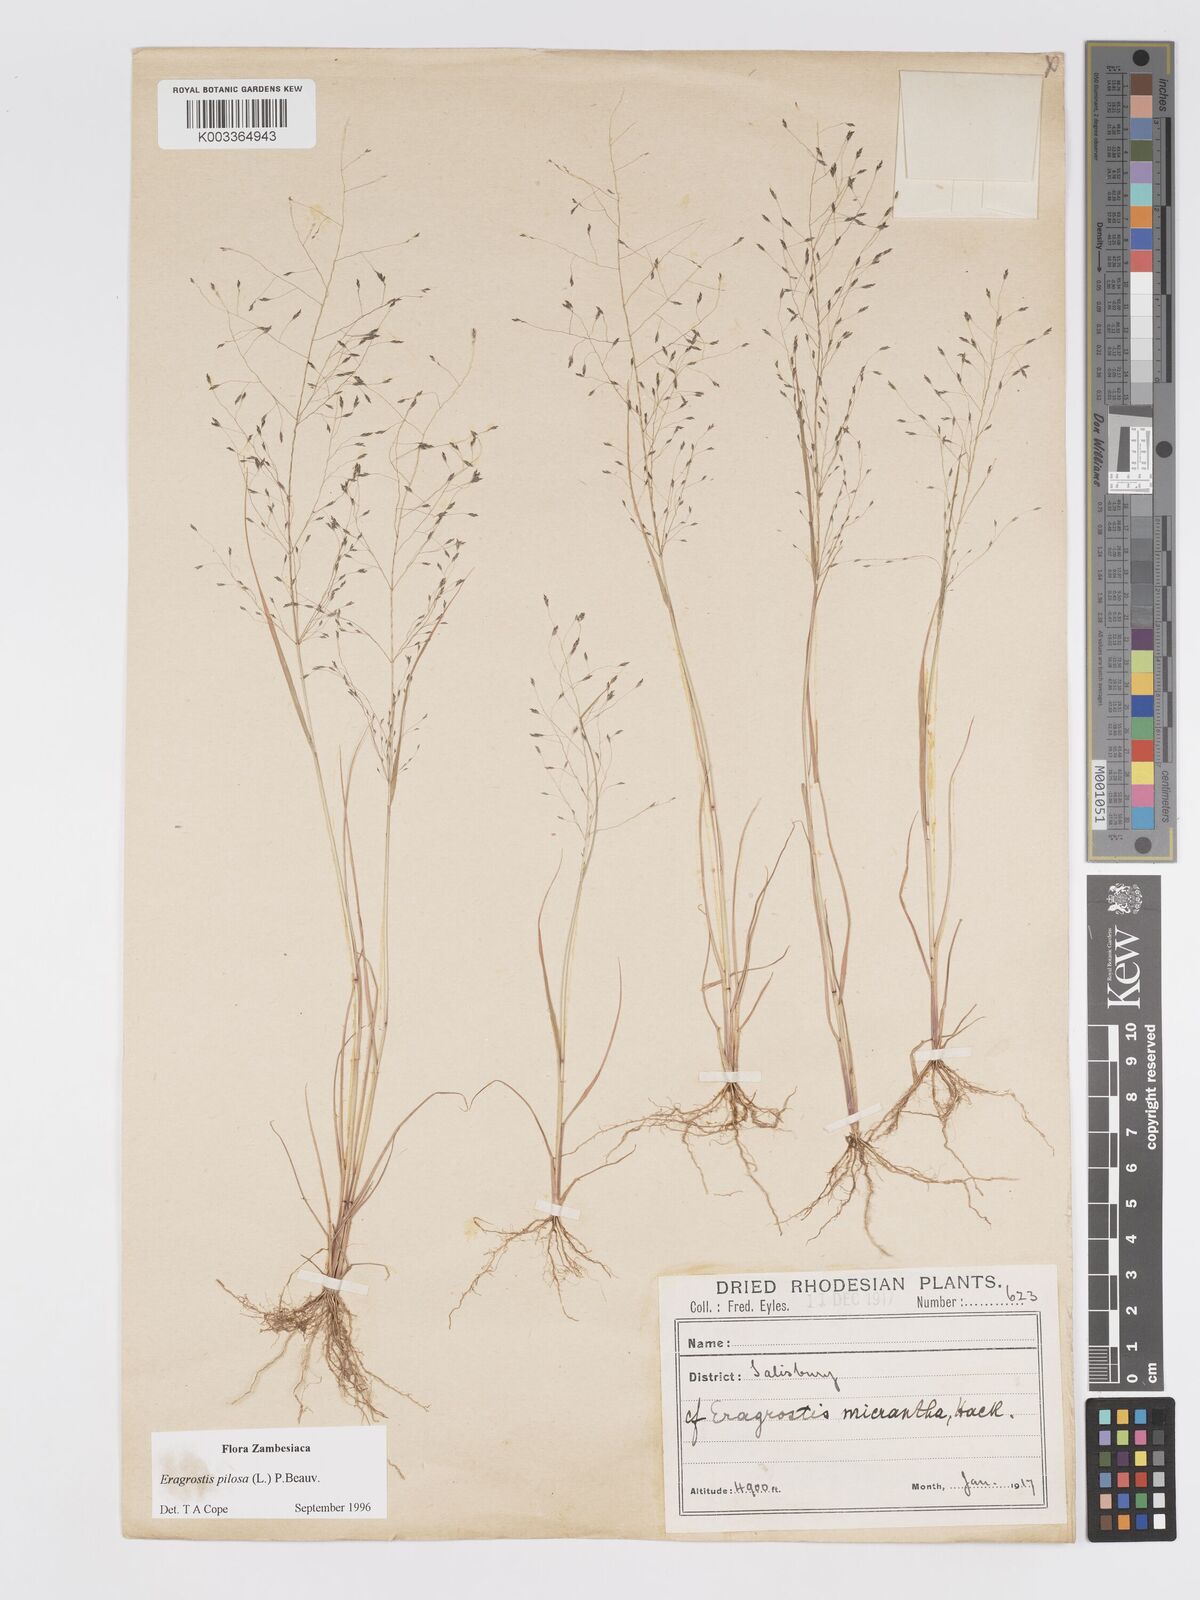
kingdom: Plantae
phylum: Tracheophyta
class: Liliopsida
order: Poales
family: Poaceae
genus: Eragrostis
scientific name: Eragrostis pilosa
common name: Indian lovegrass
